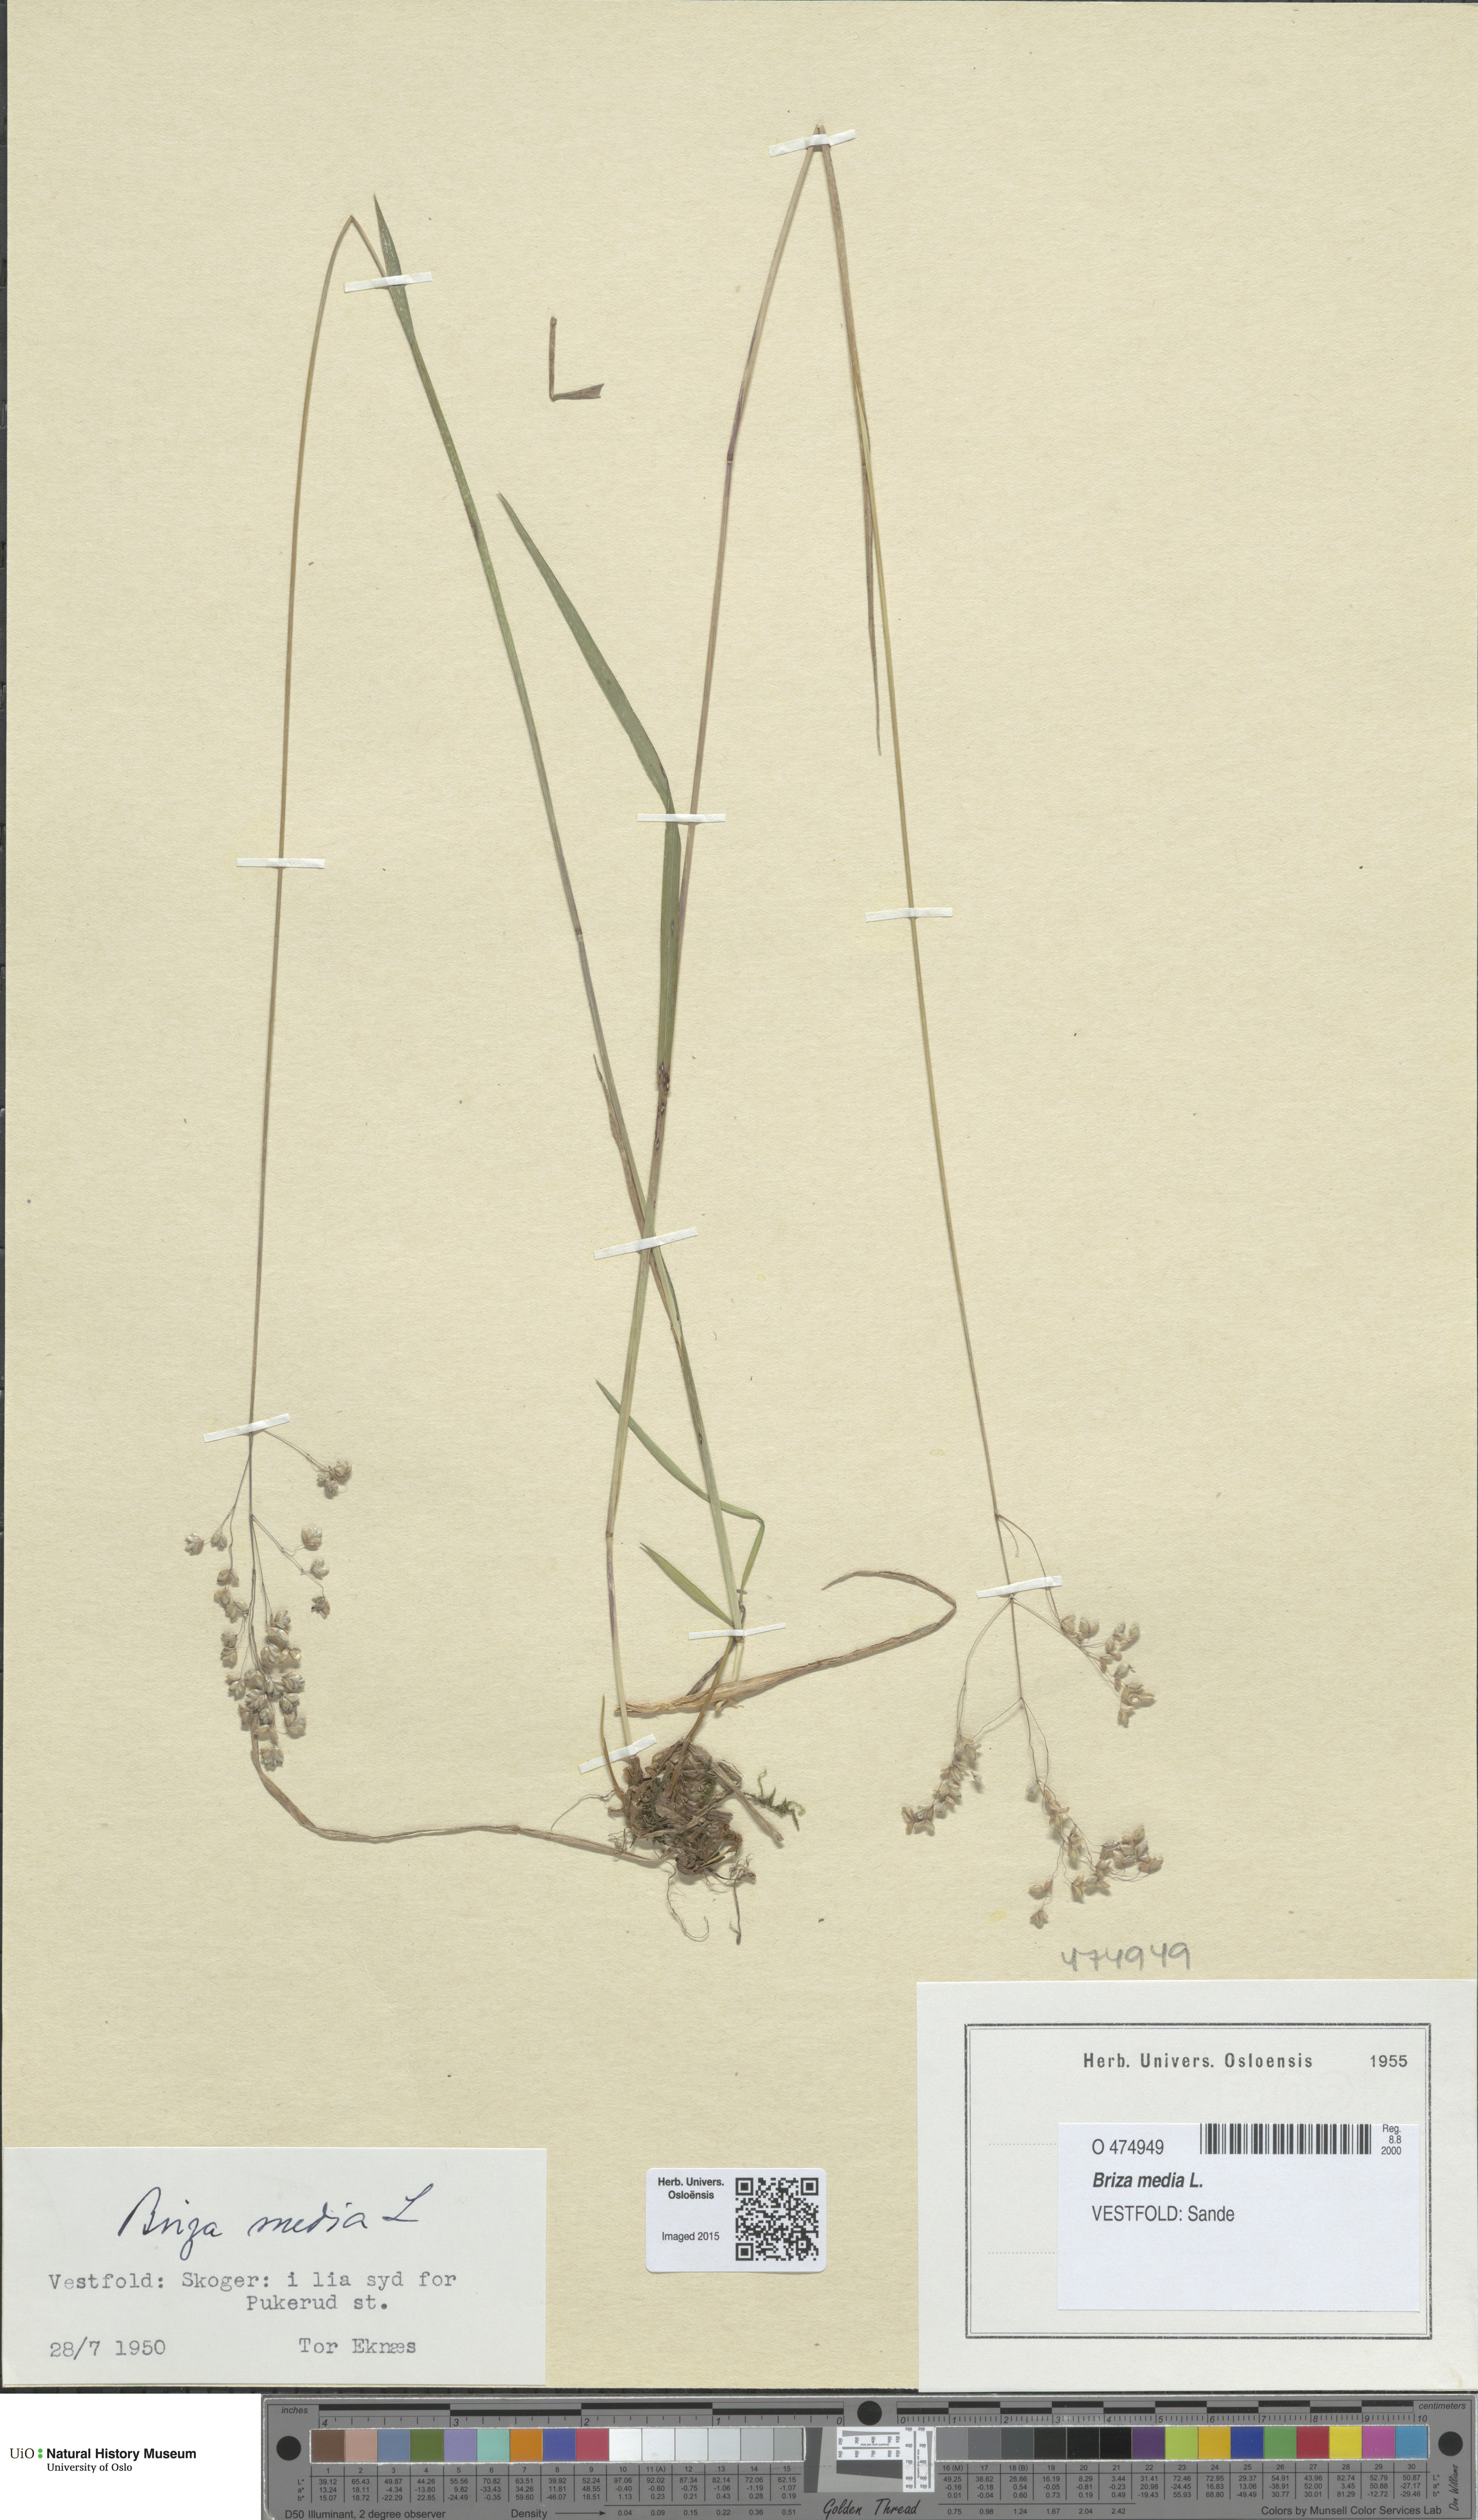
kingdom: Plantae
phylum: Tracheophyta
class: Liliopsida
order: Poales
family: Poaceae
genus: Briza
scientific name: Briza media
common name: Quaking grass
